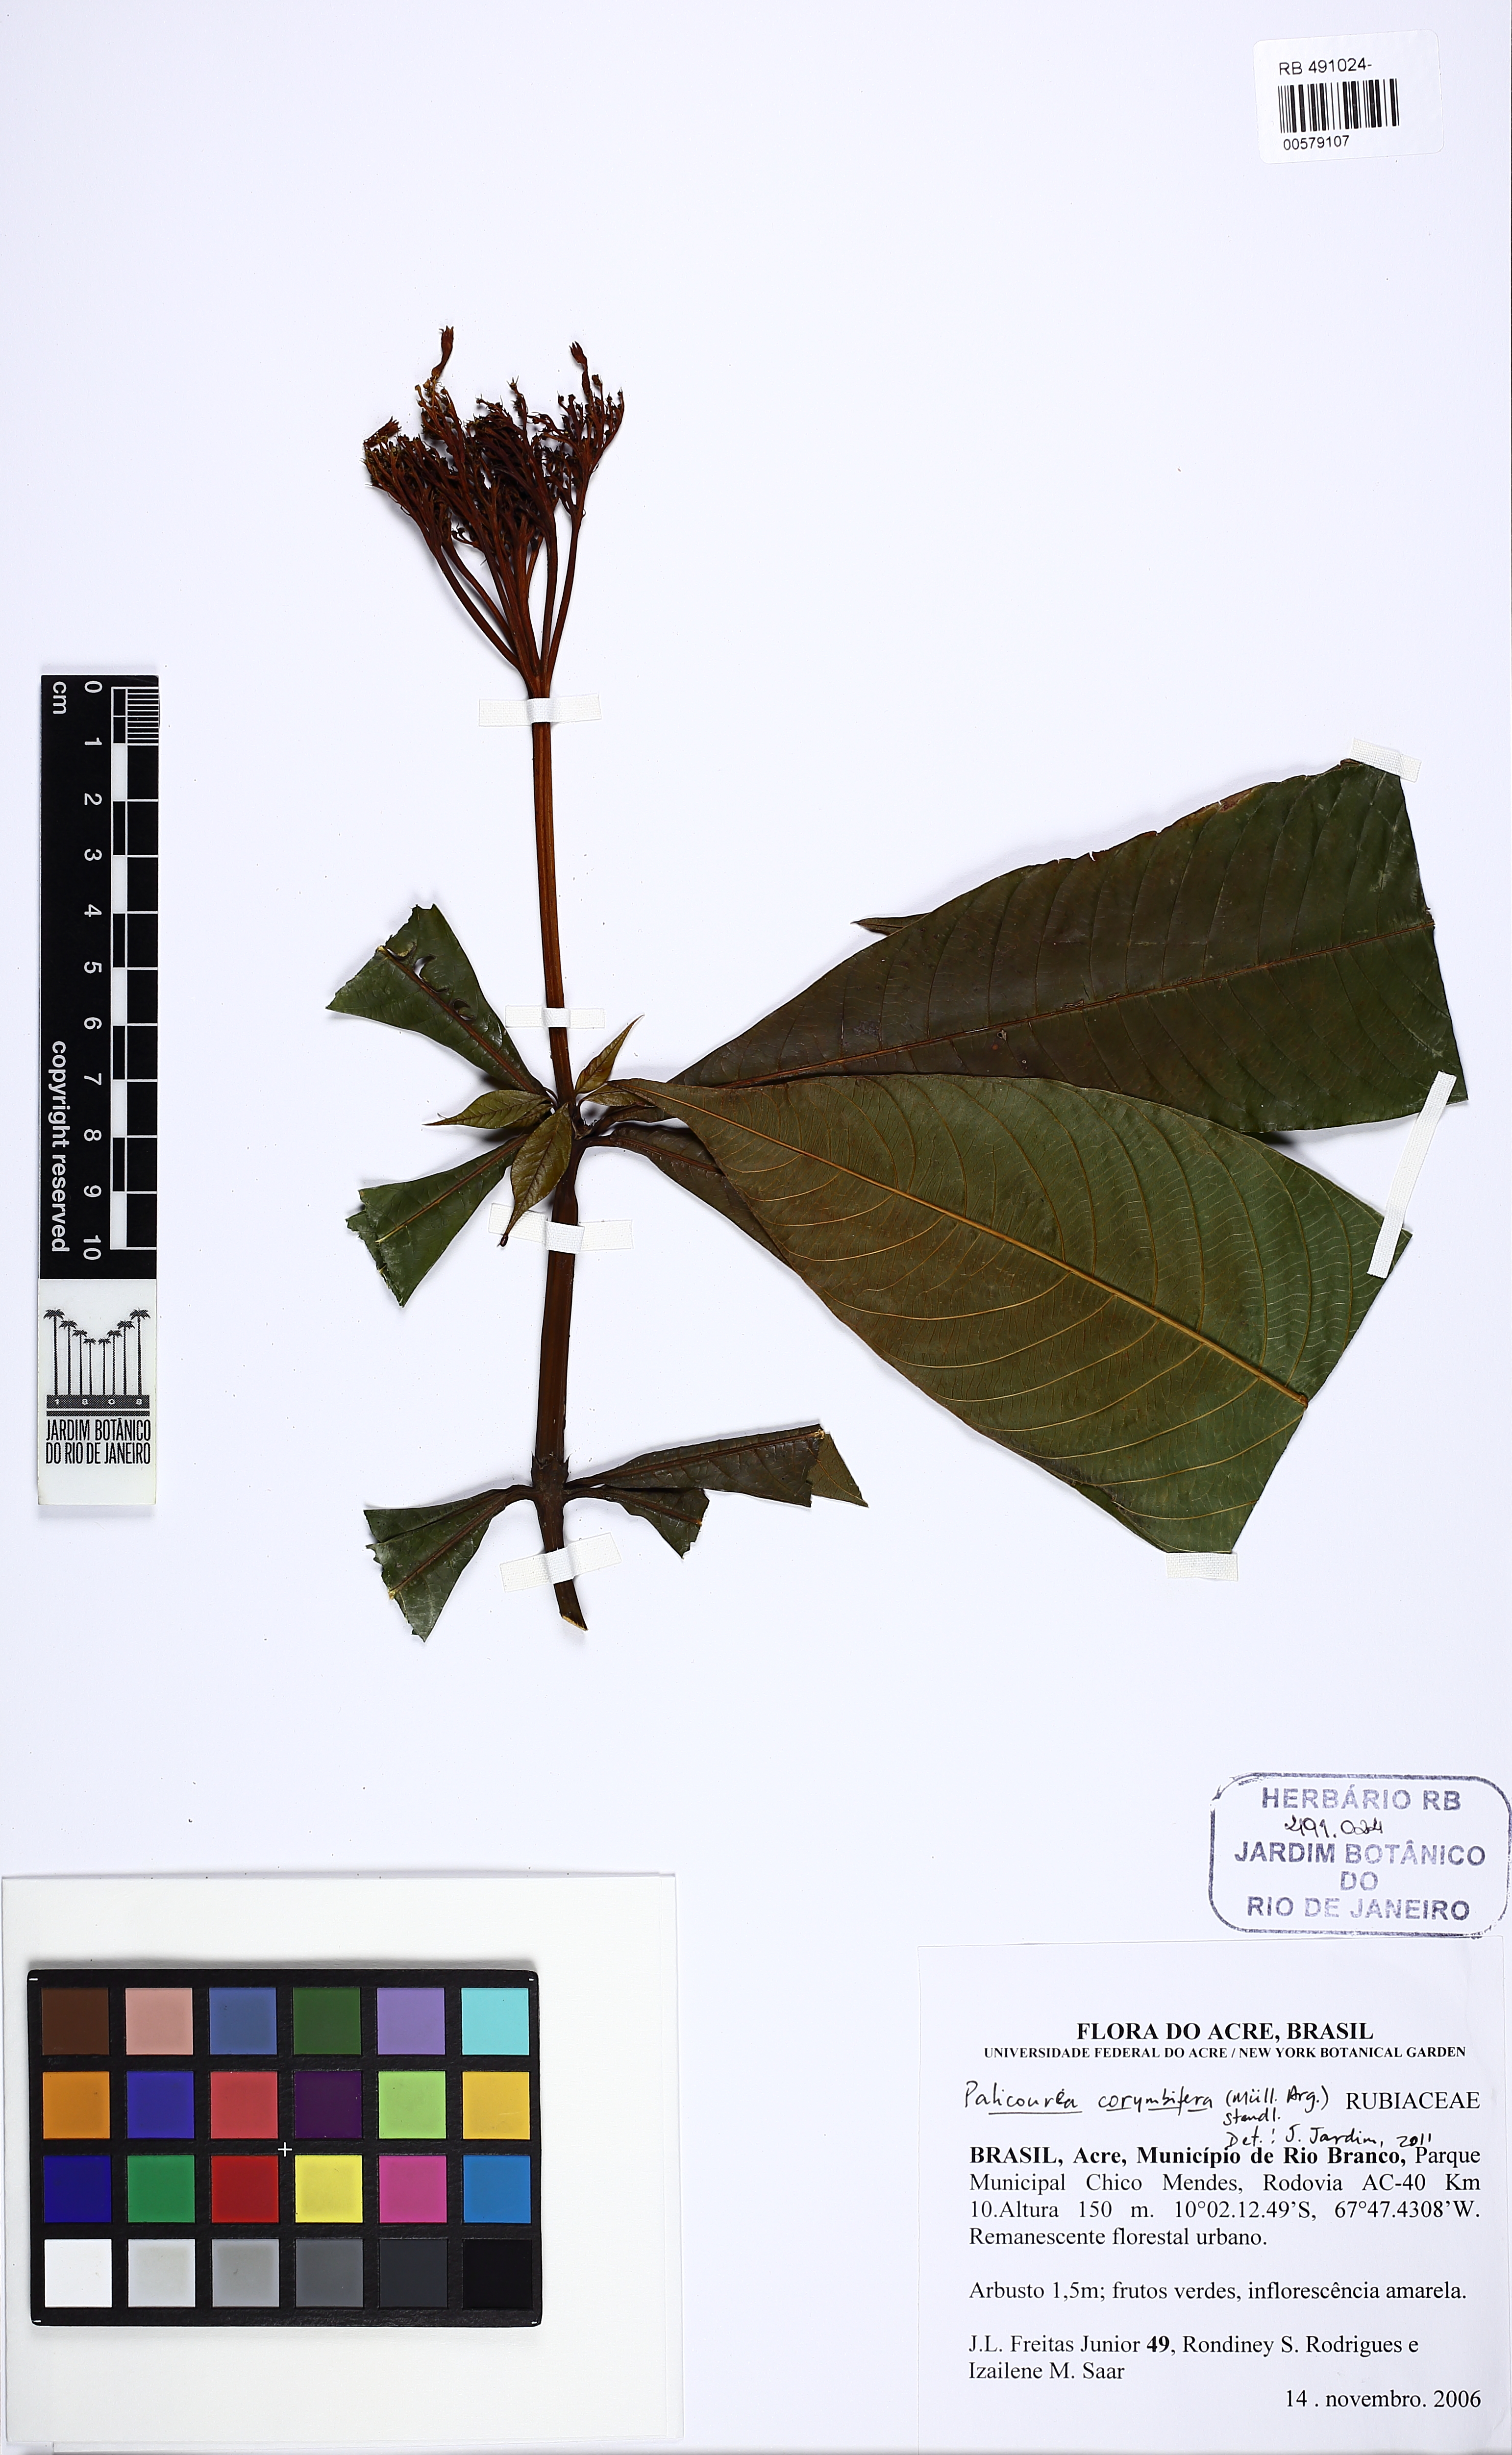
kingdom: Plantae
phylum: Tracheophyta
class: Magnoliopsida
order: Gentianales
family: Rubiaceae
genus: Palicourea
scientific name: Palicourea corymbifera
